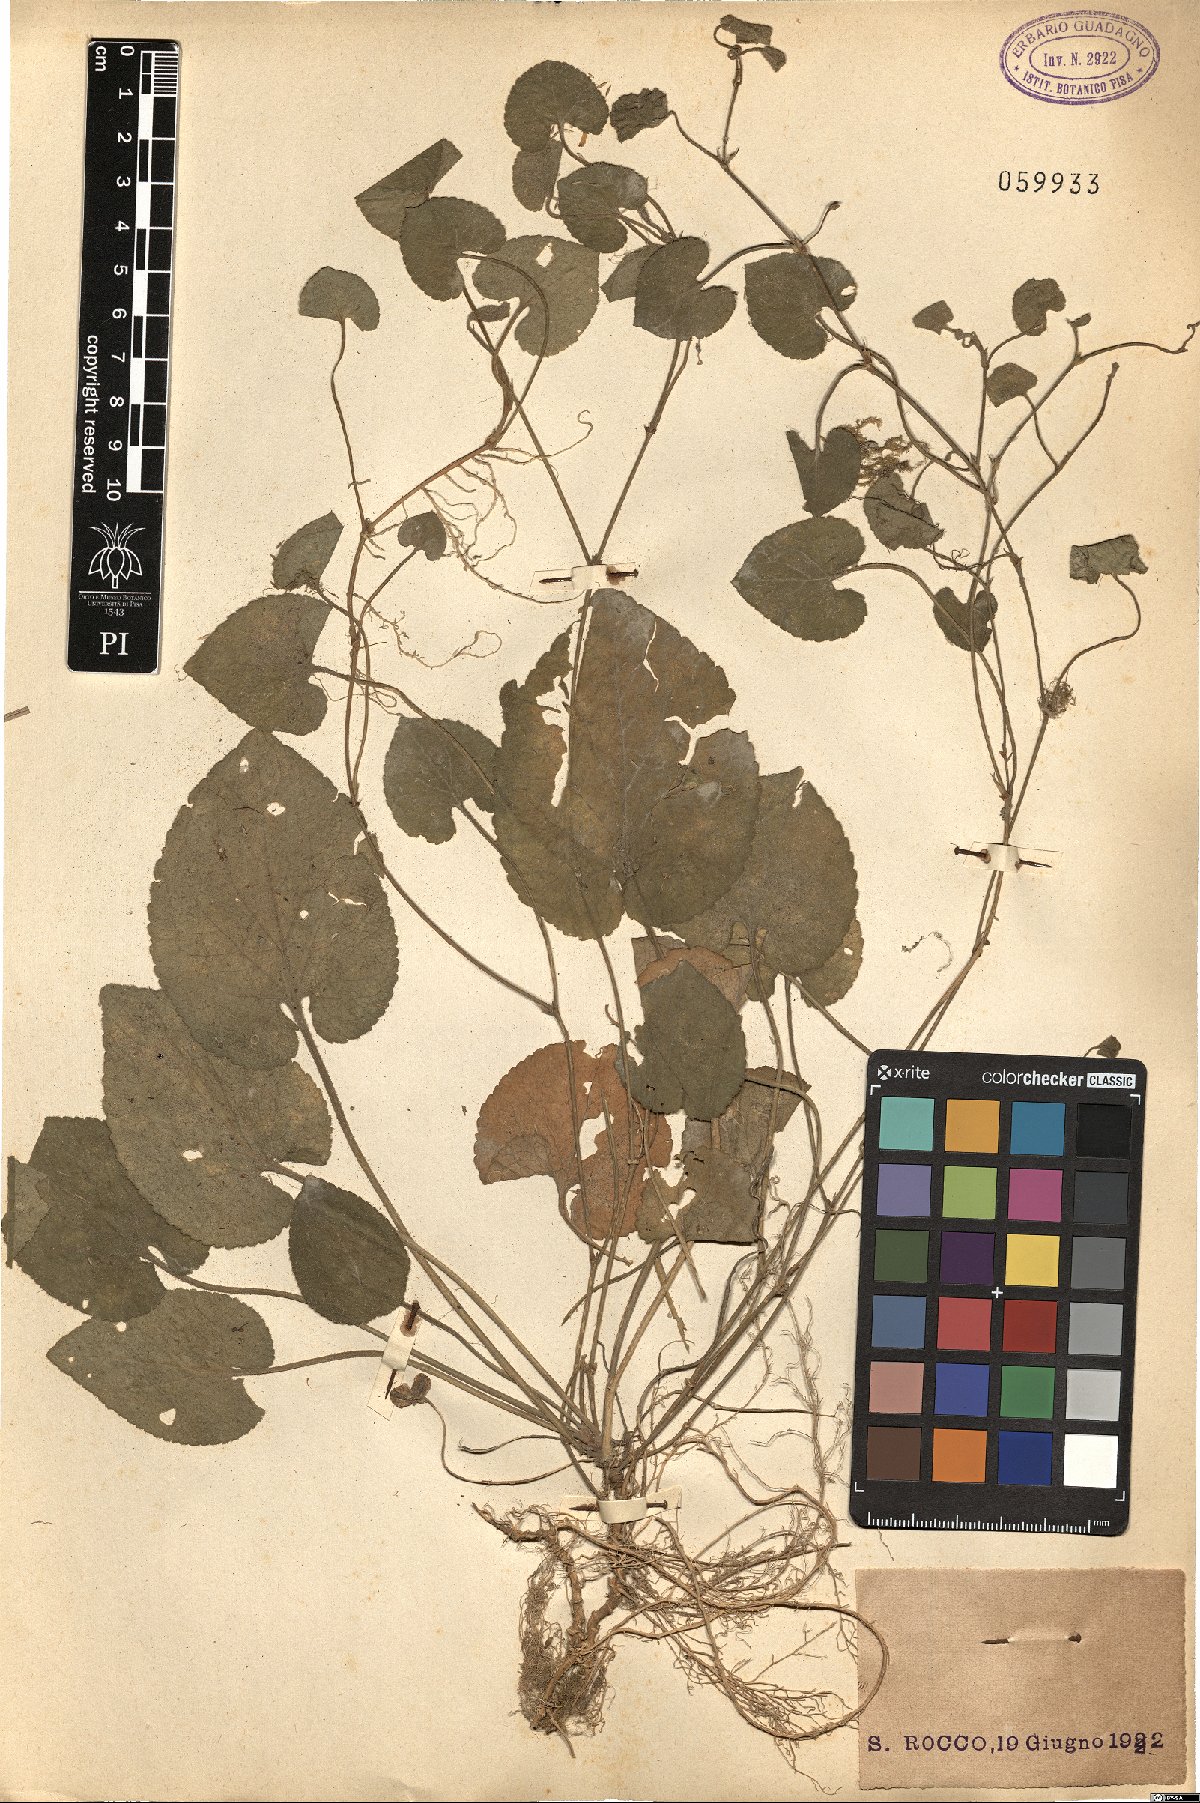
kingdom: Plantae
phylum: Tracheophyta
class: Magnoliopsida
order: Malpighiales
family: Violaceae
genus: Viola
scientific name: Viola
